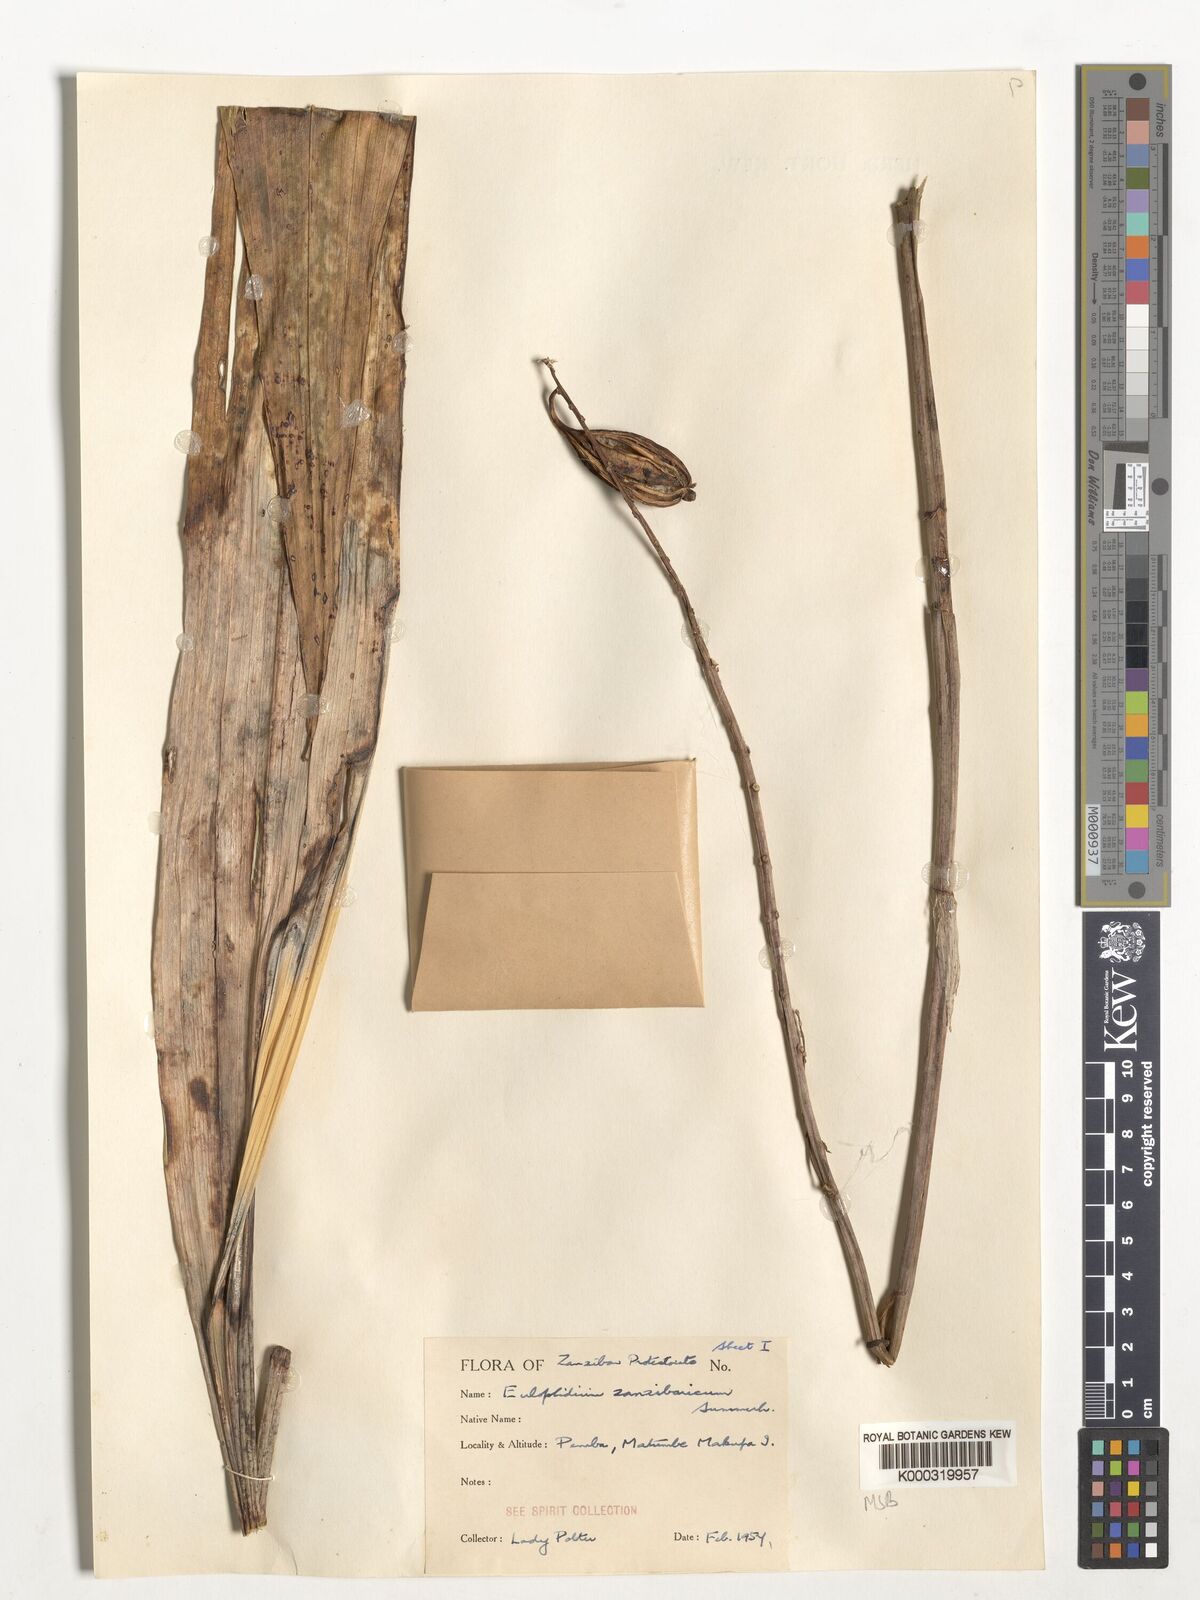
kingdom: Plantae
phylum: Tracheophyta
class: Liliopsida
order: Asparagales
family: Orchidaceae
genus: Eulophia
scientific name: Eulophia zanzibarica
